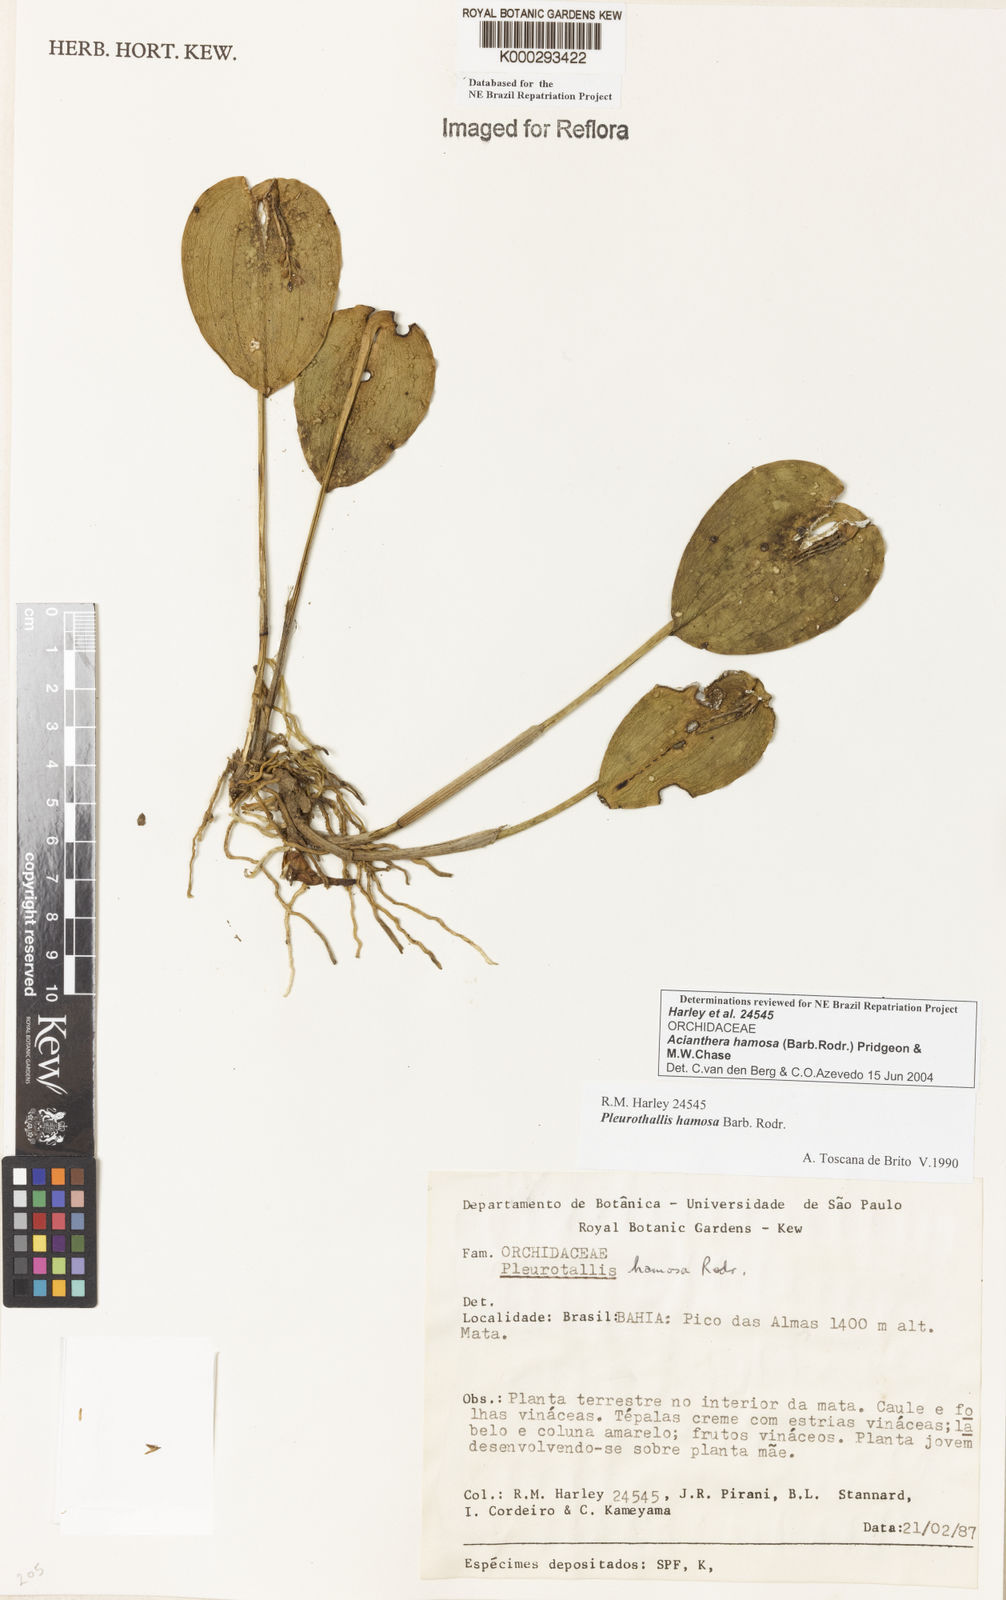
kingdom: Plantae
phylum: Tracheophyta
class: Liliopsida
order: Asparagales
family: Orchidaceae
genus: Acianthera
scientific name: Acianthera prolifera
